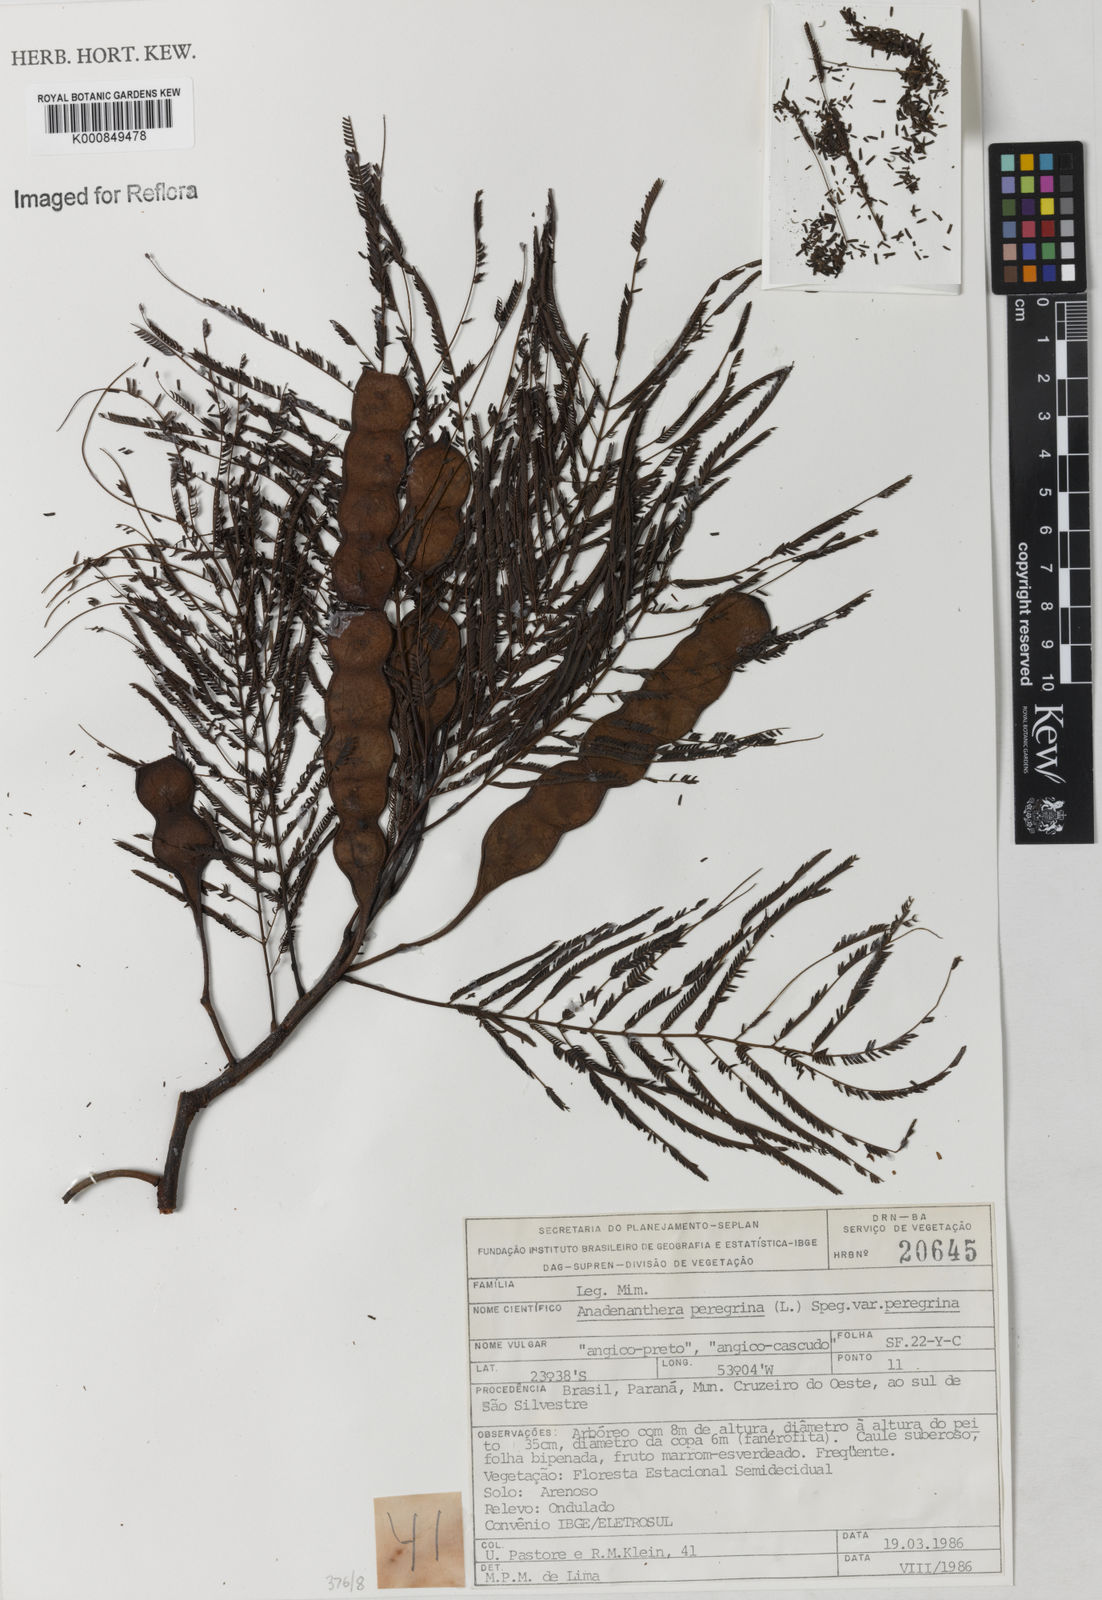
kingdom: Plantae
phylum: Tracheophyta
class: Magnoliopsida
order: Fabales
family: Fabaceae
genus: Anadenanthera
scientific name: Anadenanthera peregrina
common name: Cohoba
